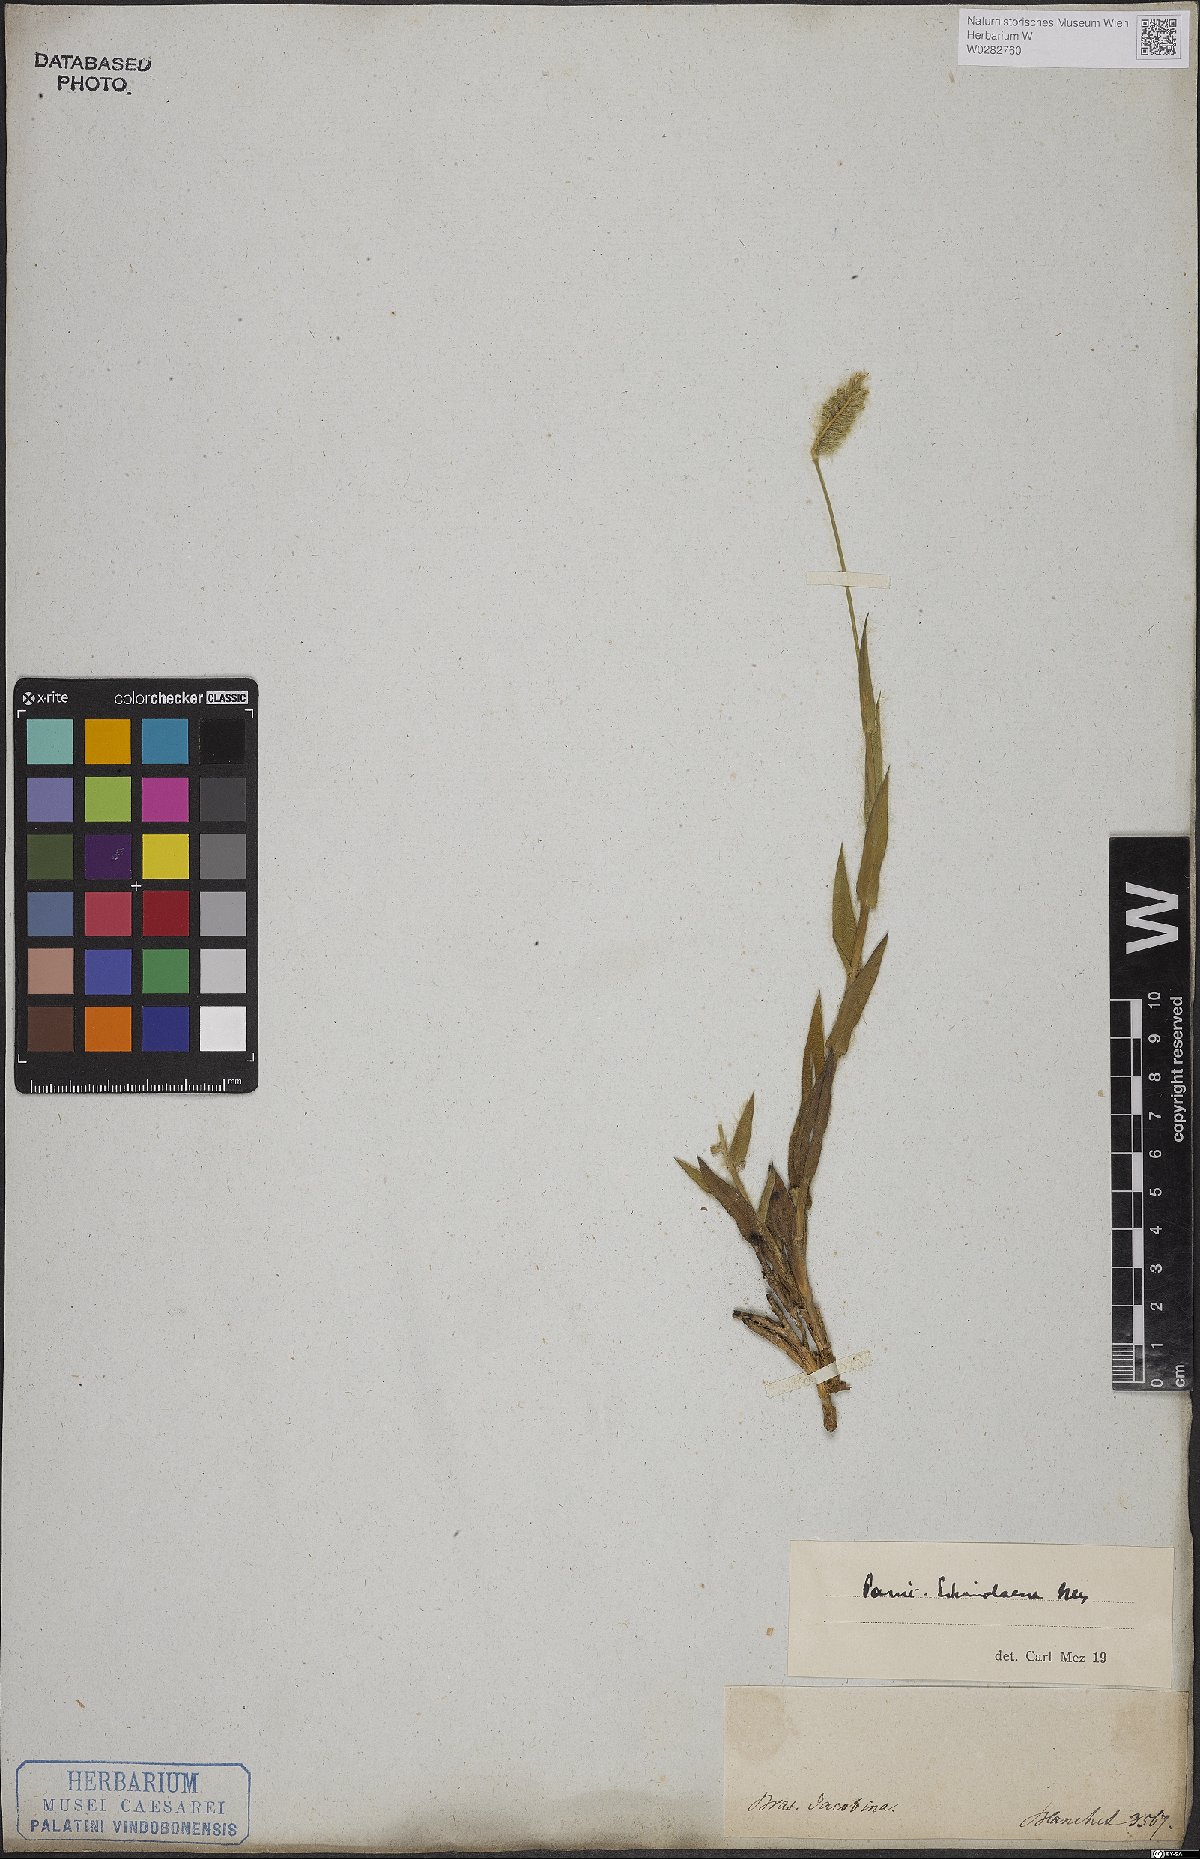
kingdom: Plantae
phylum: Tracheophyta
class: Liliopsida
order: Poales
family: Poaceae
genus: Echinolaena
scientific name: Echinolaena inflexa
